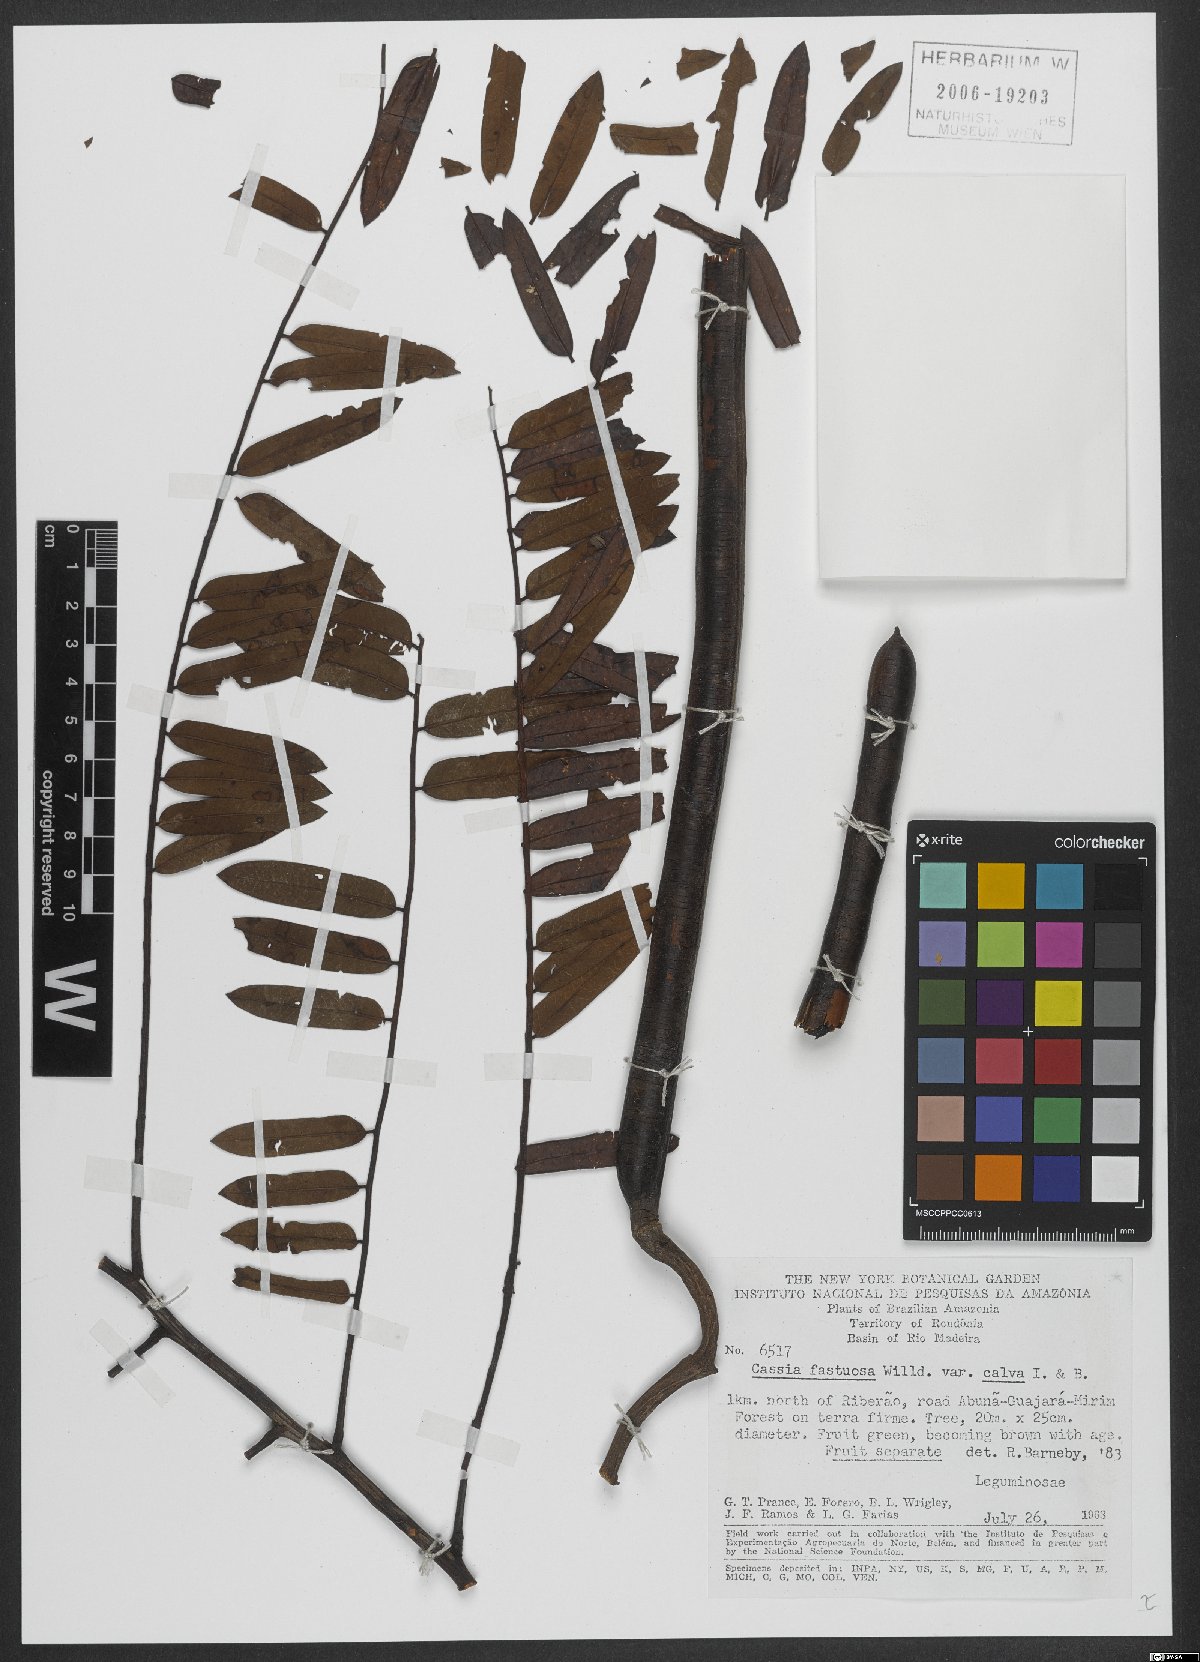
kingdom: Plantae
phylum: Tracheophyta
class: Magnoliopsida
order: Fabales
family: Fabaceae
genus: Cassia
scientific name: Cassia fastuosa
